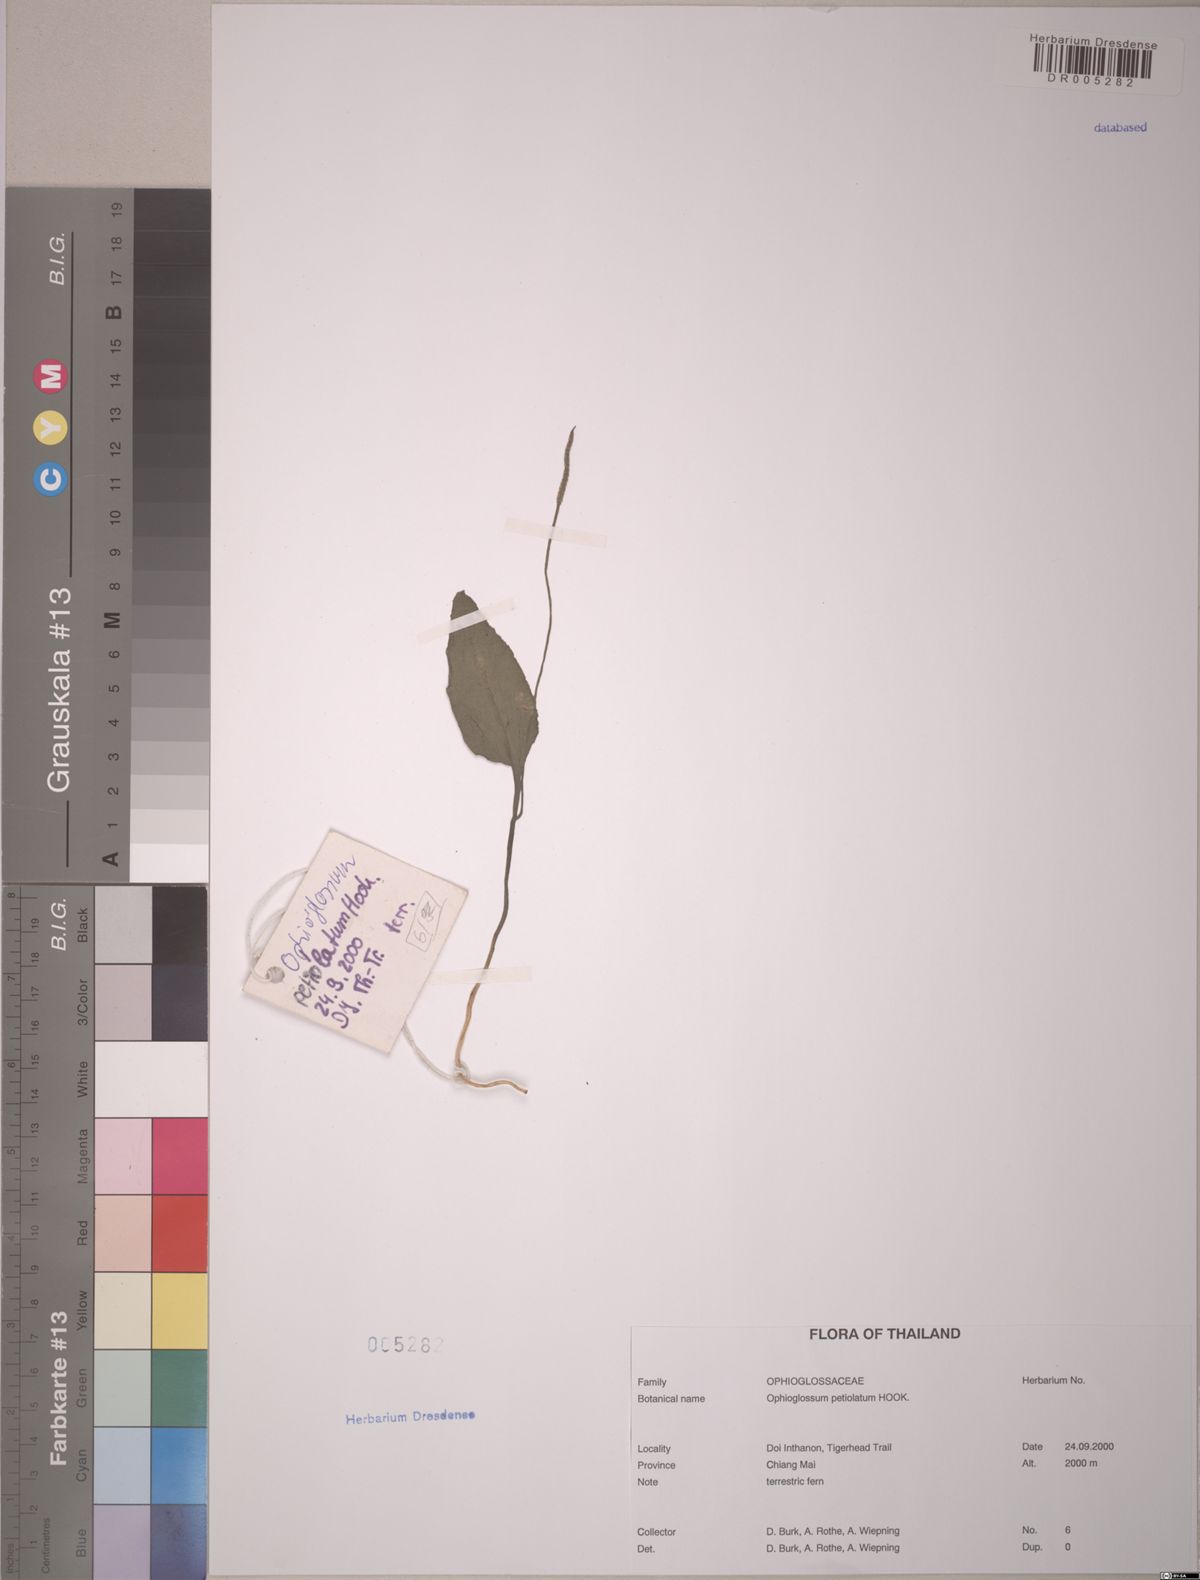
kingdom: Plantae
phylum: Tracheophyta
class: Polypodiopsida
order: Ophioglossales
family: Ophioglossaceae
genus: Ophioglossum
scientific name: Ophioglossum petiolatum
